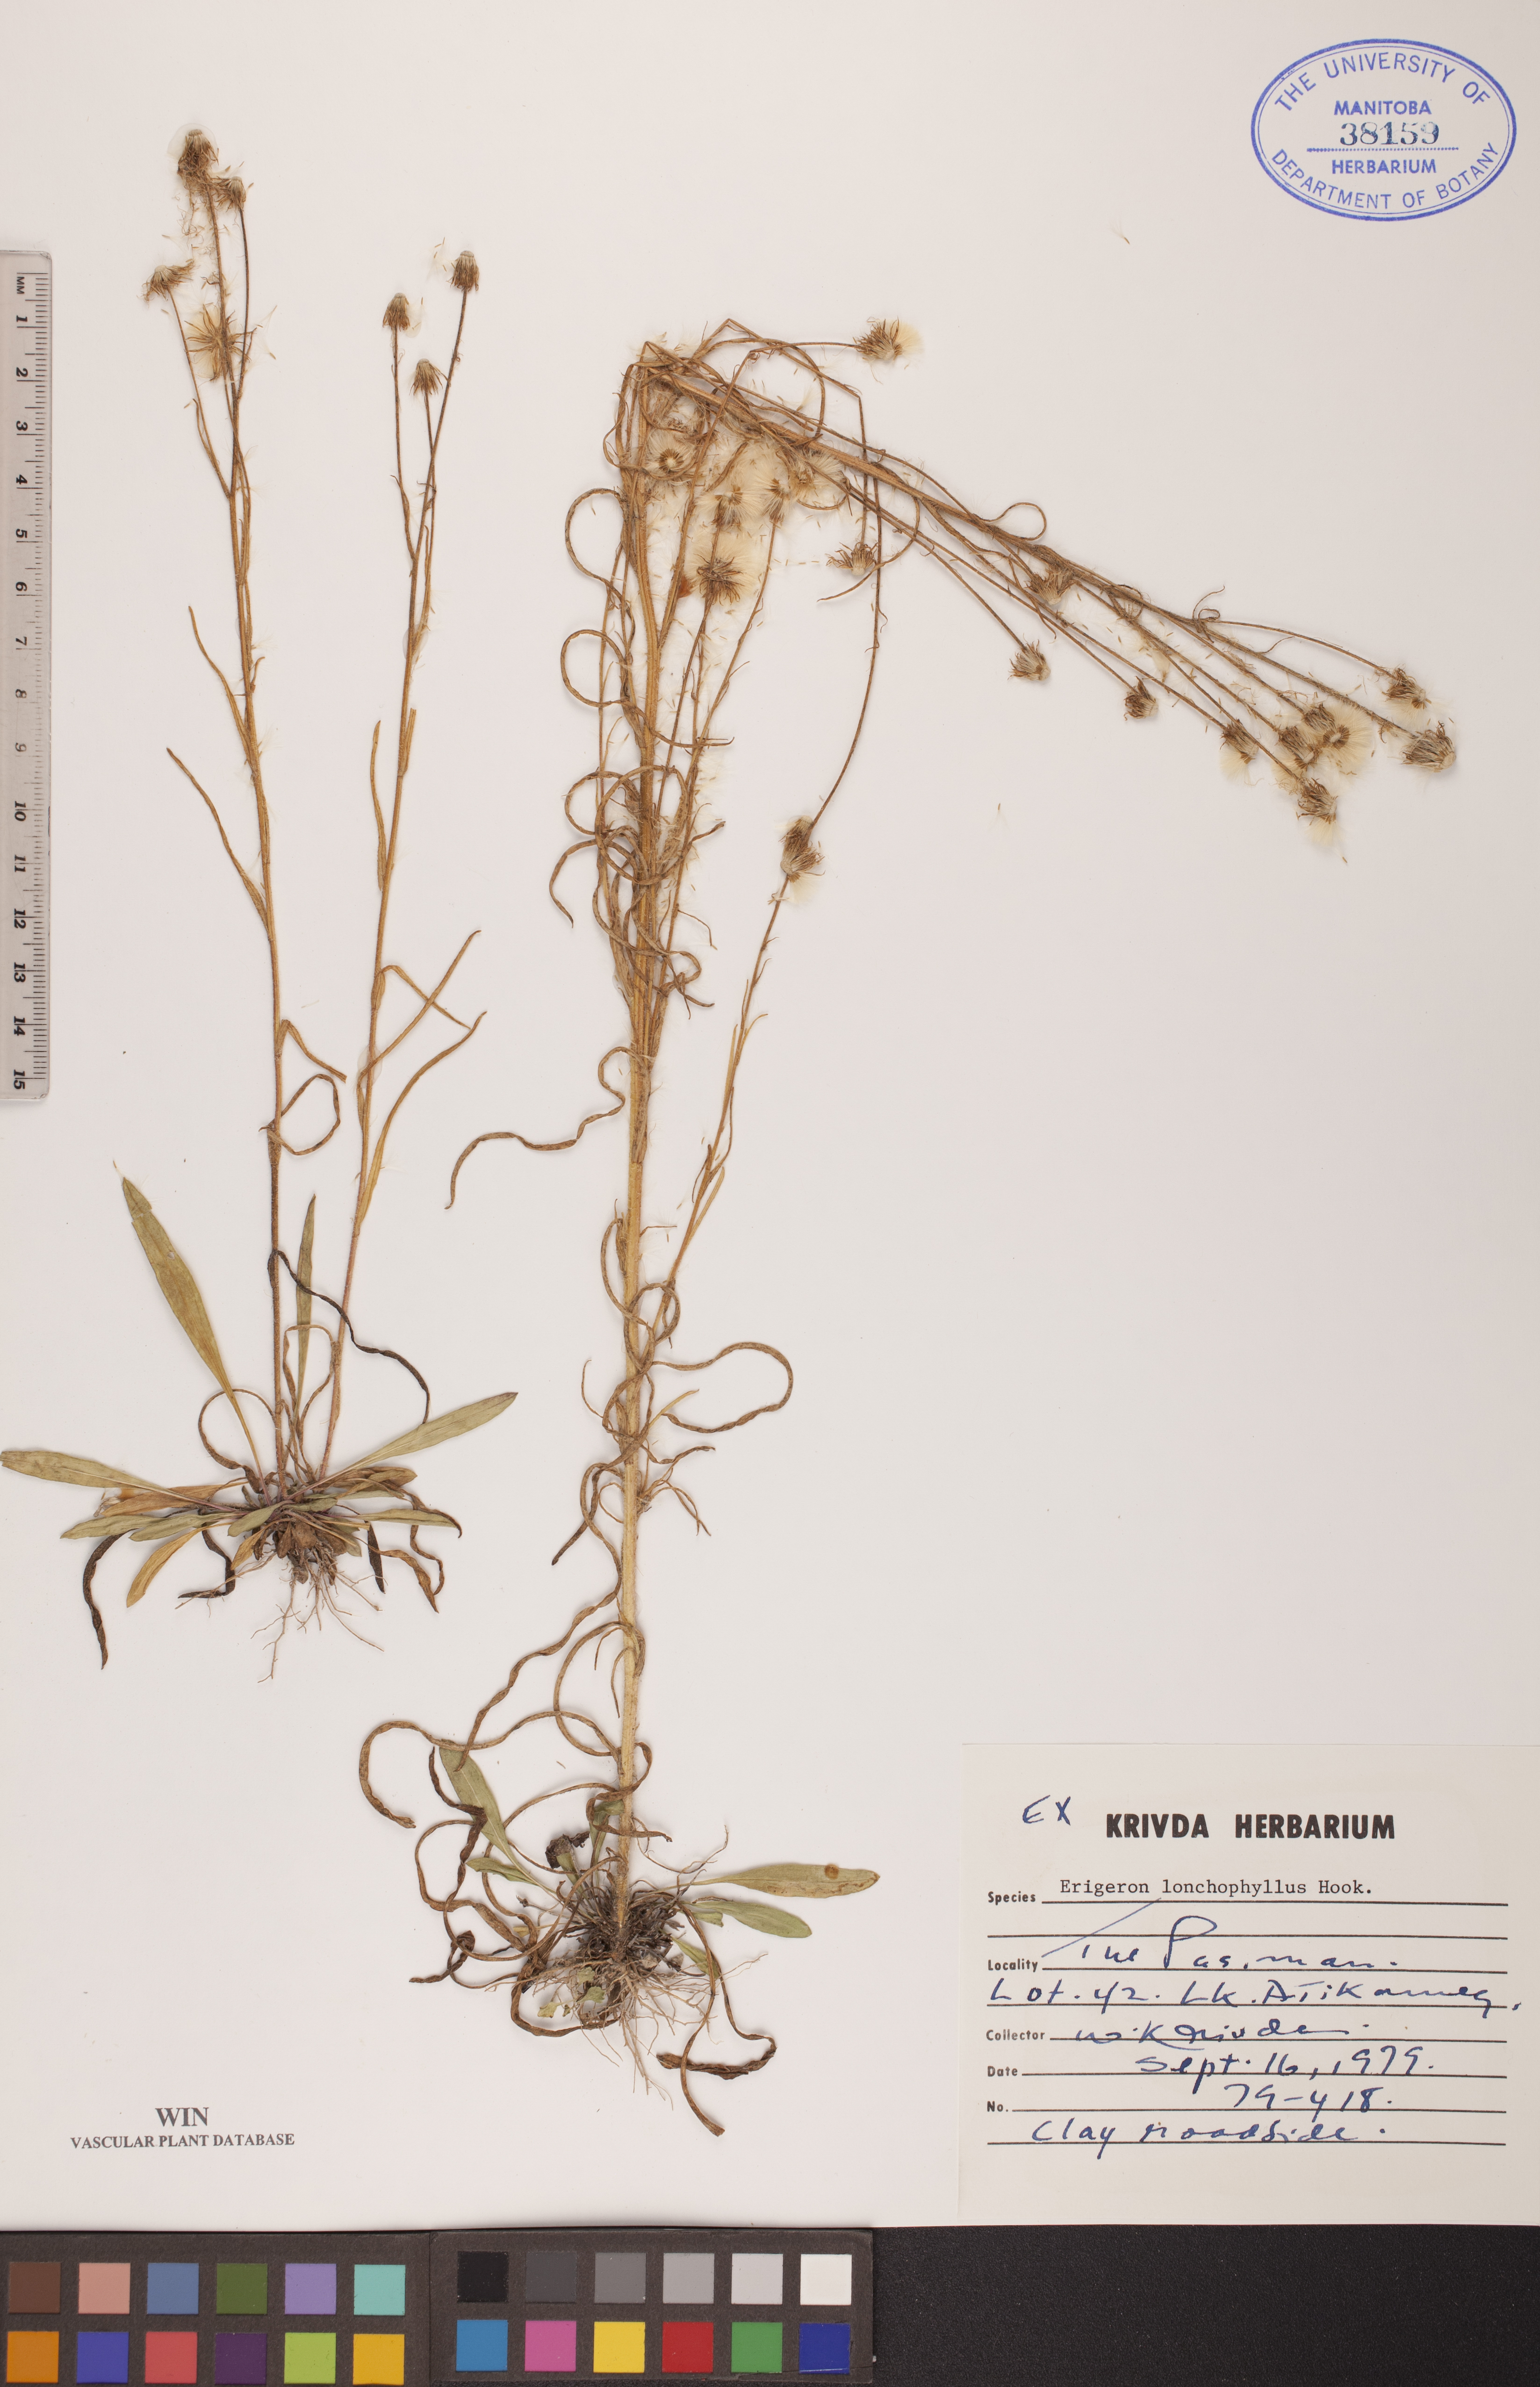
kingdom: Plantae
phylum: Tracheophyta
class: Magnoliopsida
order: Asterales
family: Asteraceae
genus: Erigeron
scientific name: Erigeron lonchophyllus
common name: Short-ray fleabane
